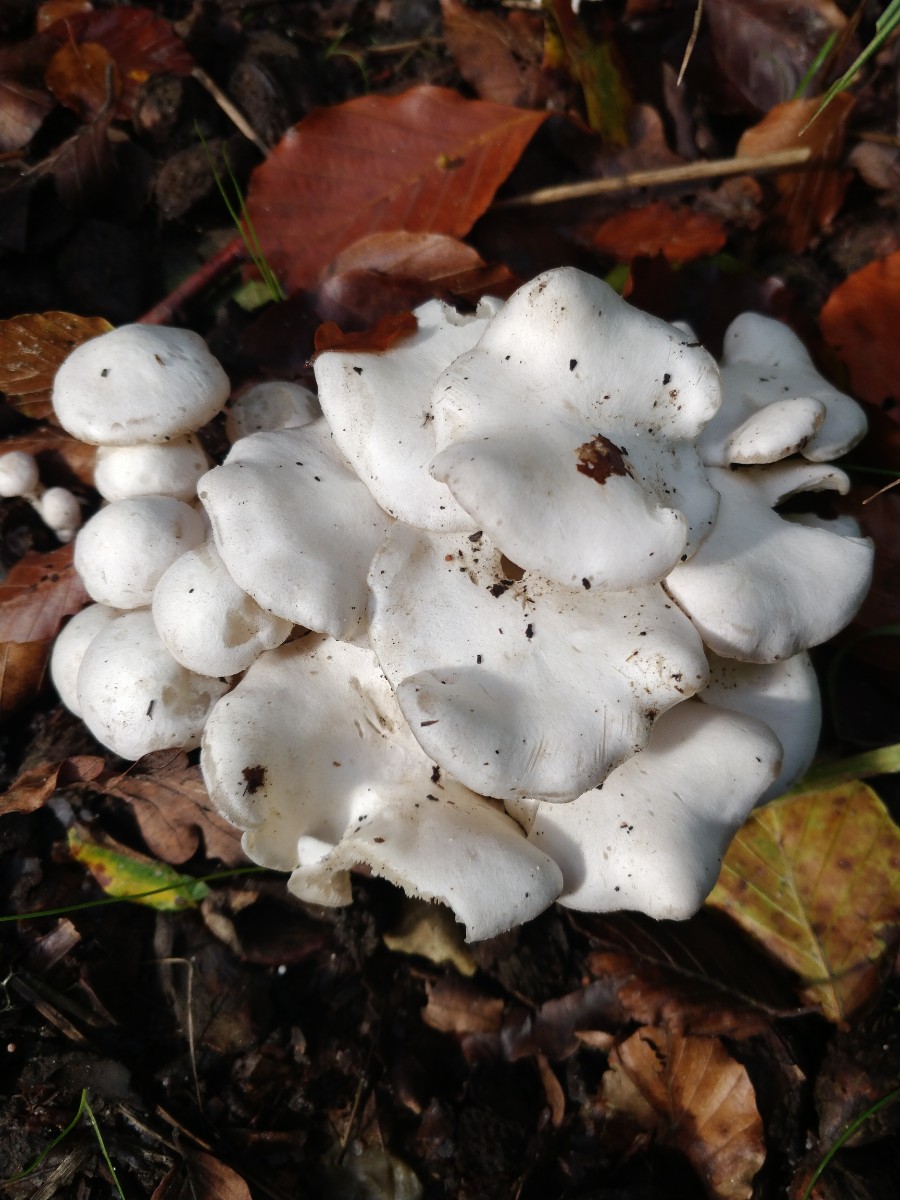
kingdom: Fungi
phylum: Basidiomycota
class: Agaricomycetes
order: Agaricales
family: Tricholomataceae
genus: Leucocybe
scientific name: Leucocybe connata
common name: knippe-tragthat
